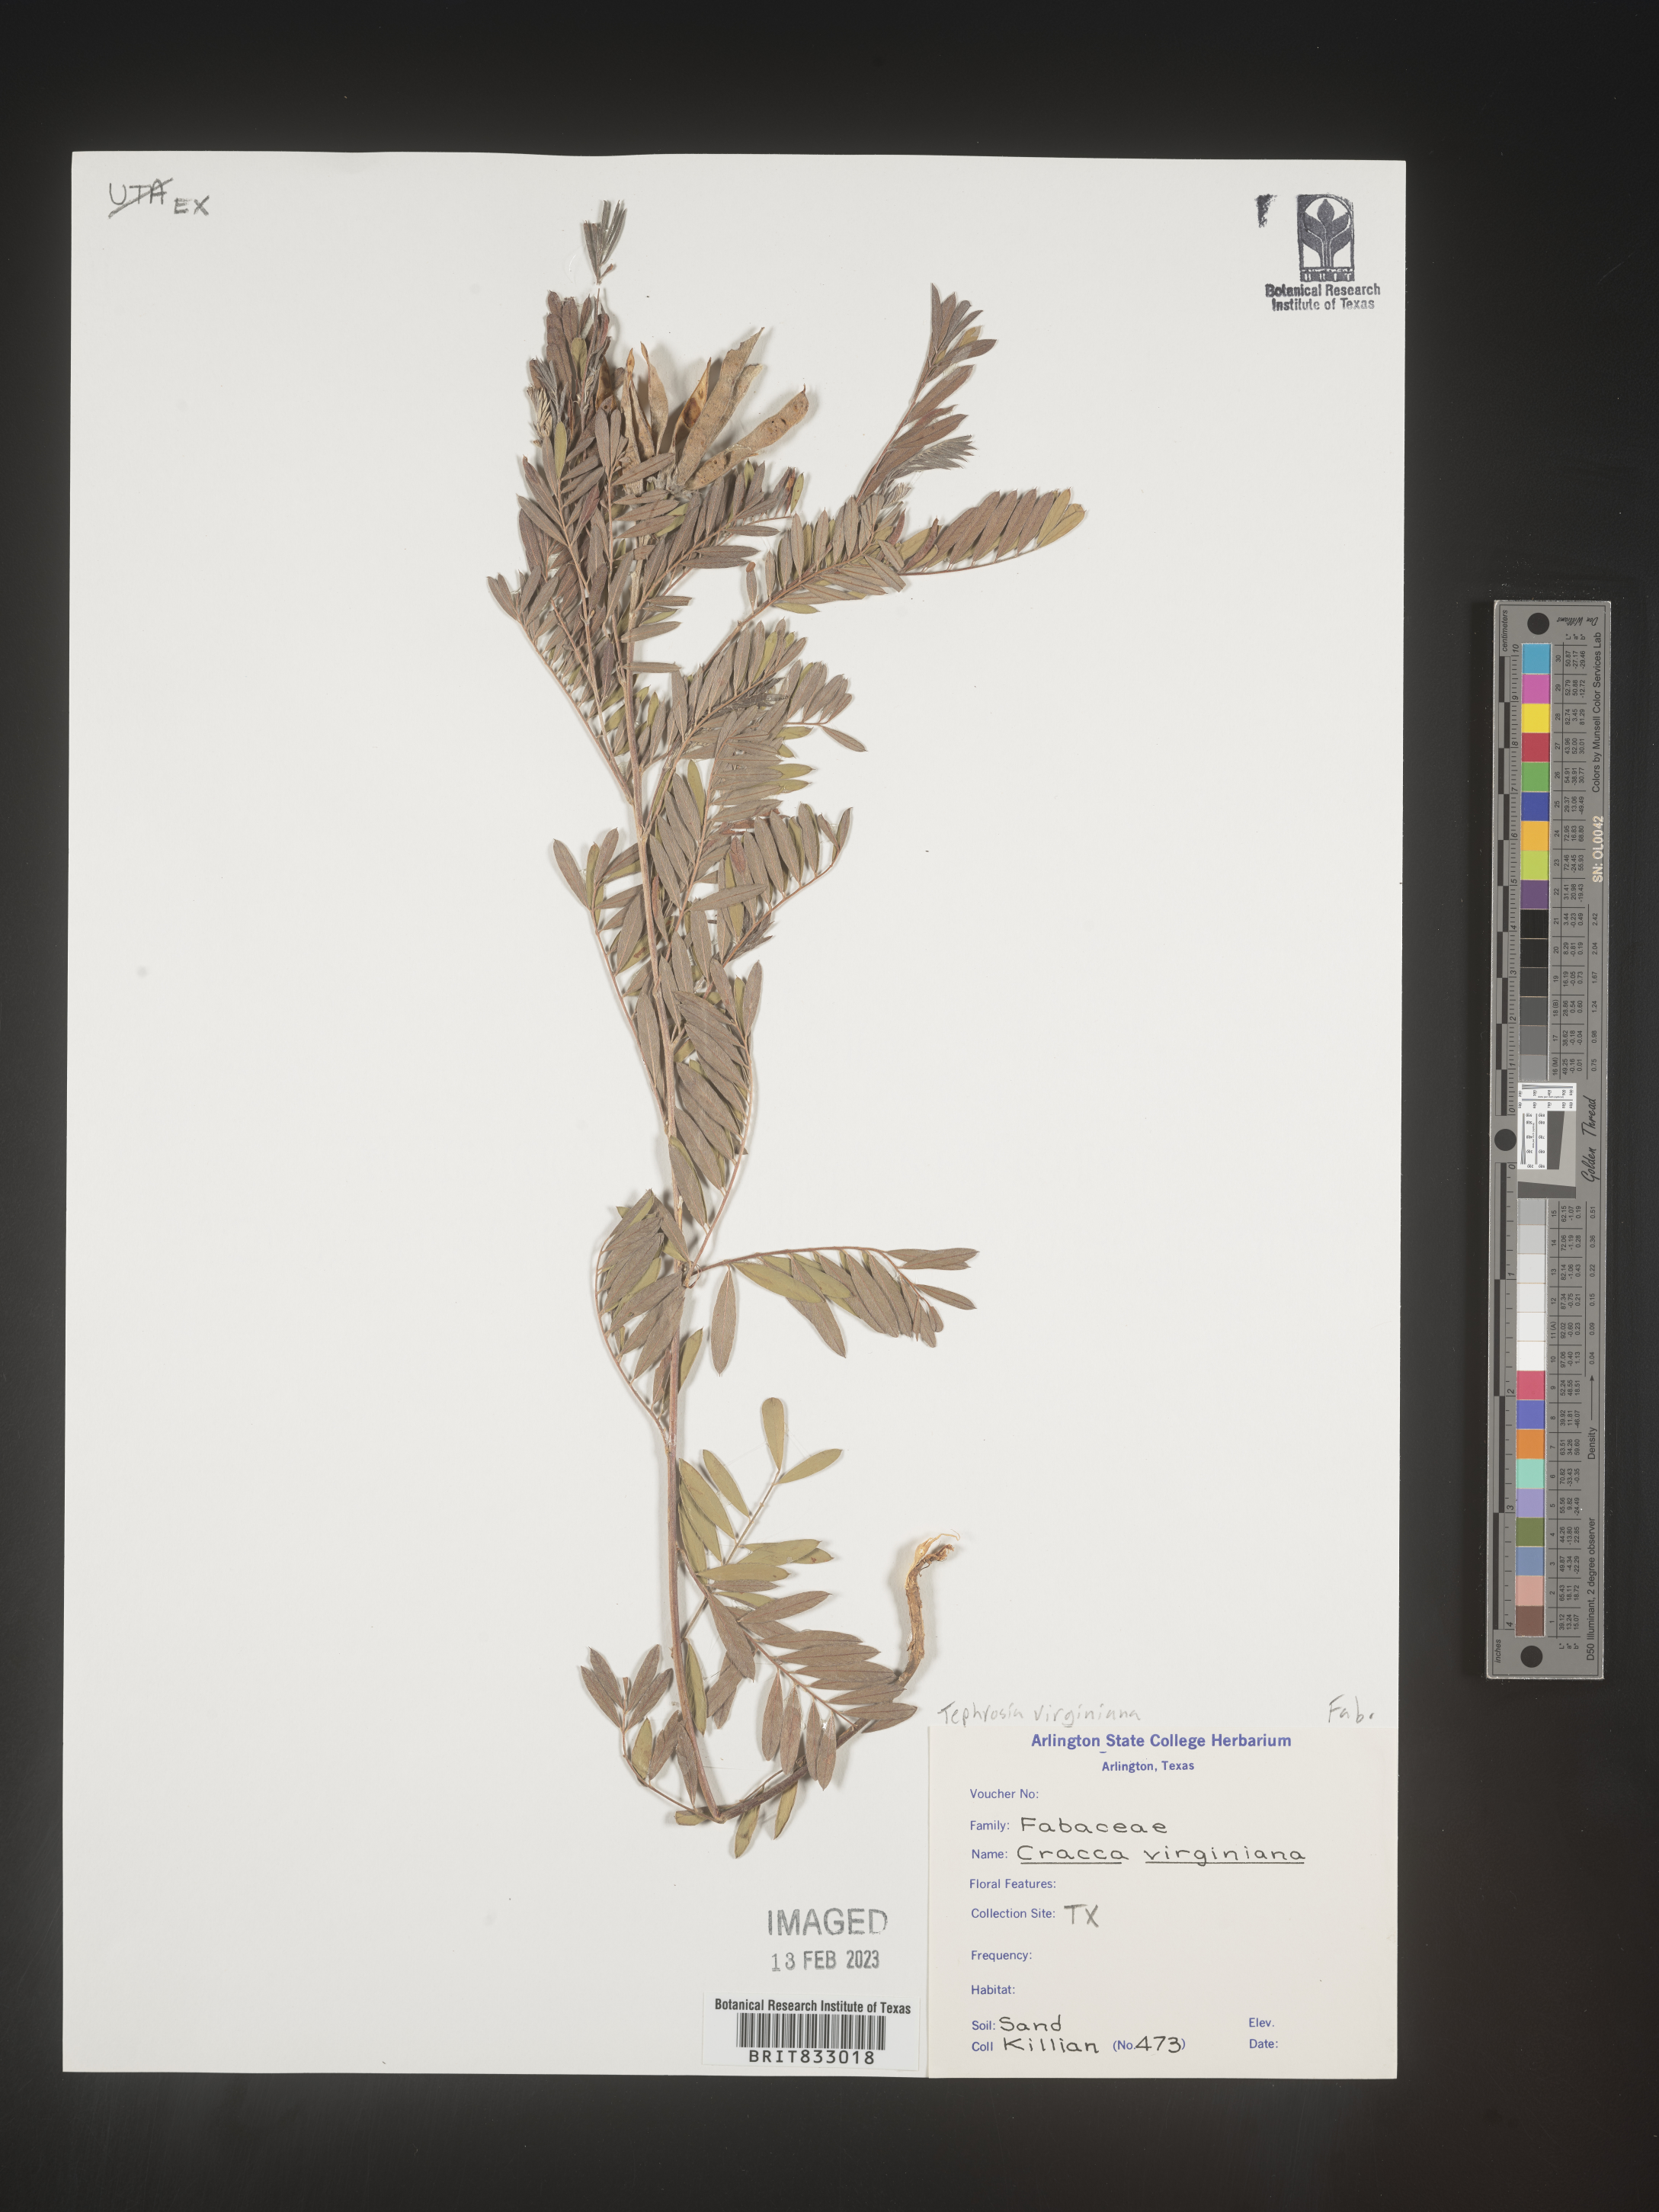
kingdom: Plantae
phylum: Tracheophyta
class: Magnoliopsida
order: Fabales
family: Fabaceae
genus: Tephrosia
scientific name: Tephrosia virginiana
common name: Rabbit-pea
